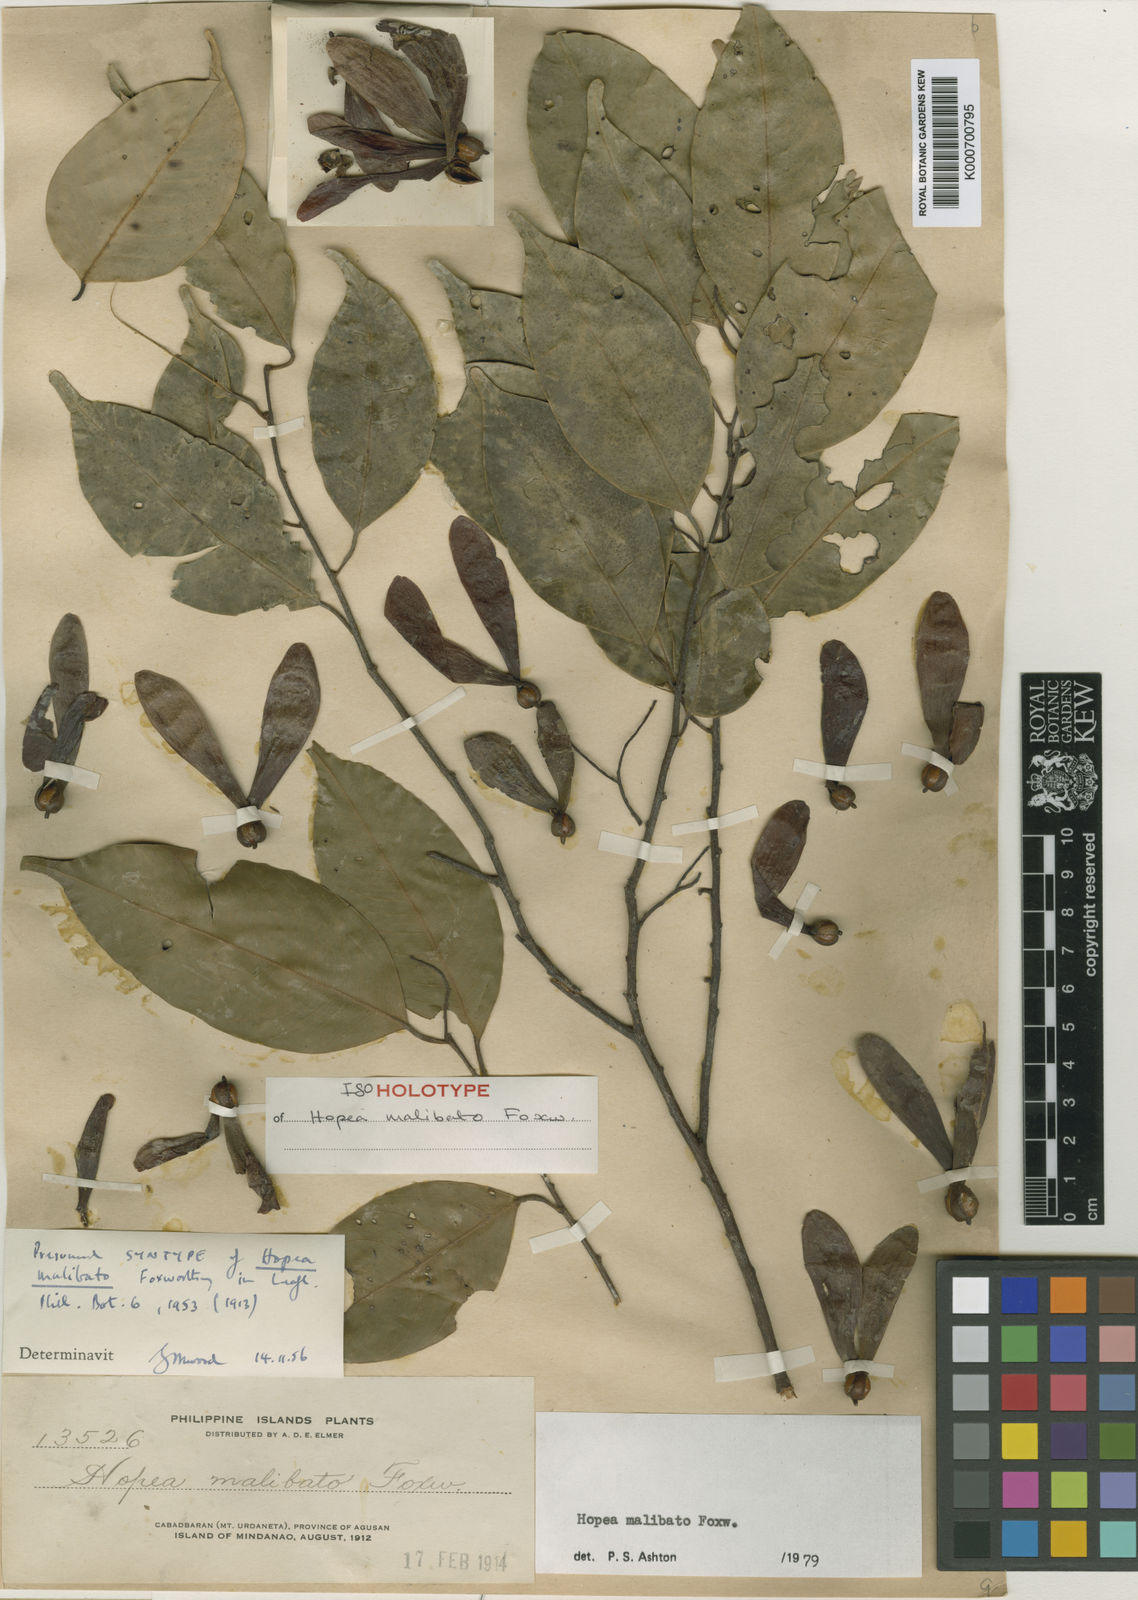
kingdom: Plantae
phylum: Tracheophyta
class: Magnoliopsida
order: Malvales
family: Dipterocarpaceae
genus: Hopea
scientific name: Hopea malibato
